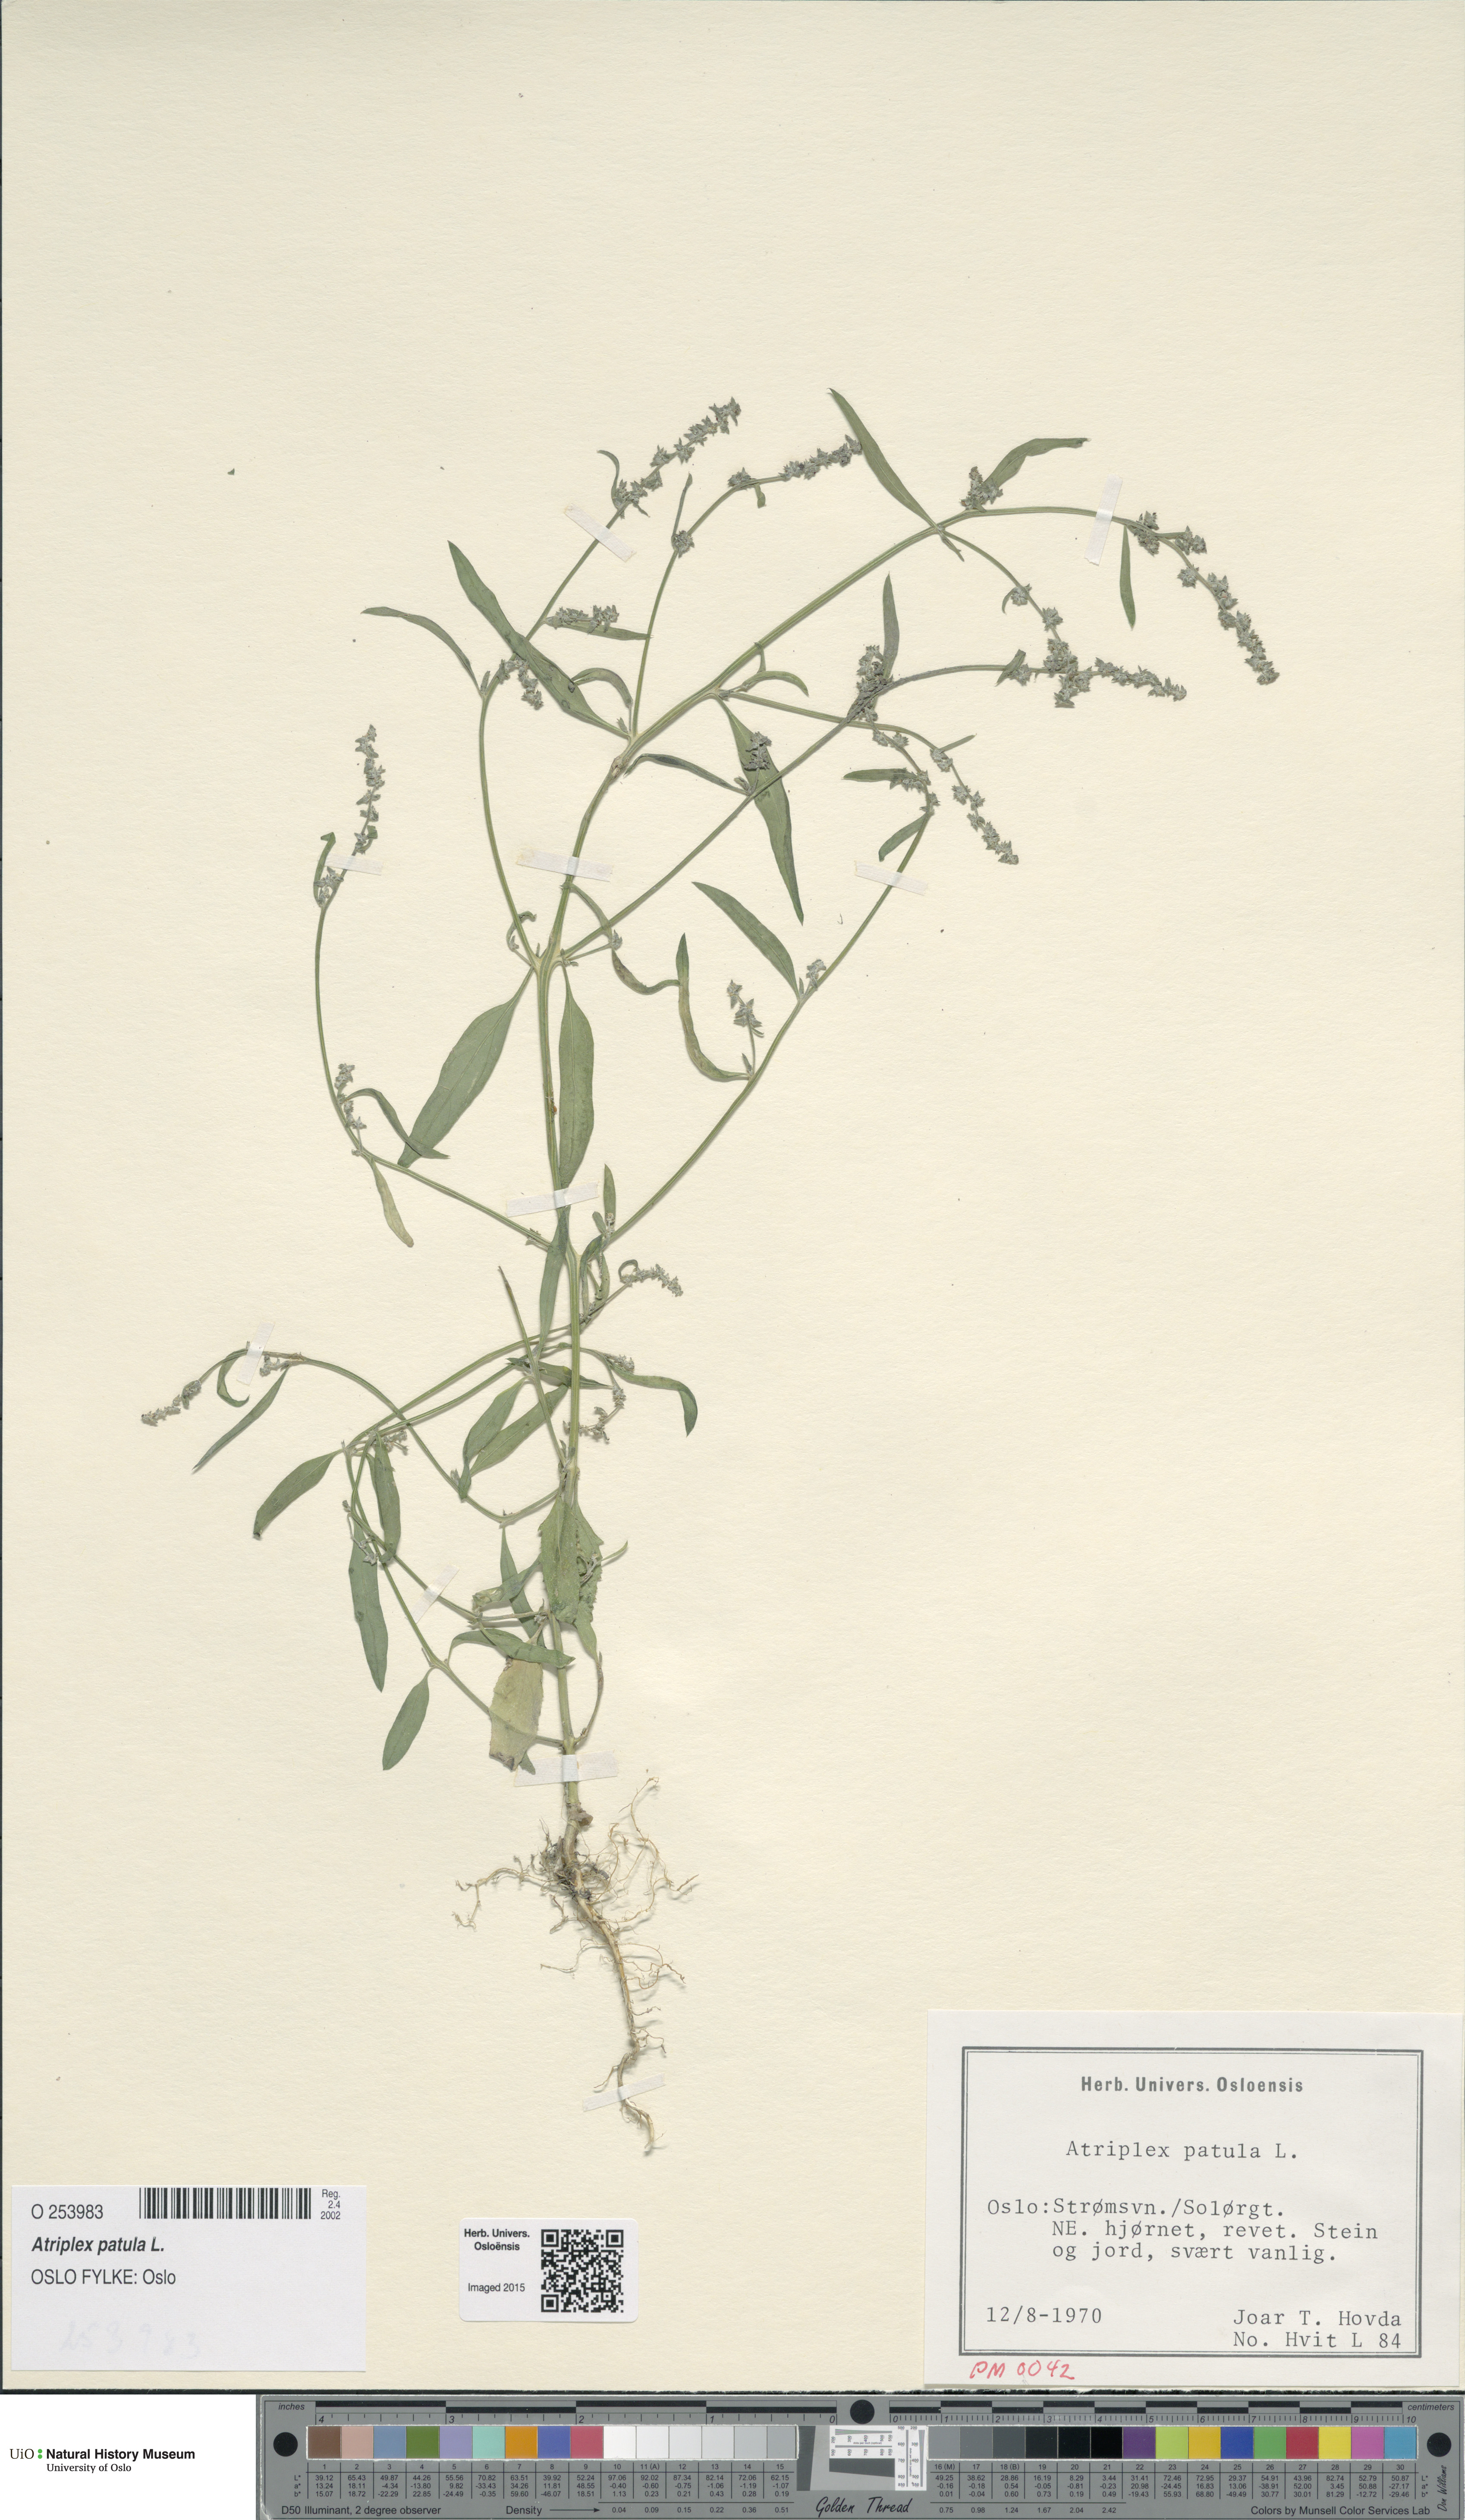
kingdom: Plantae
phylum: Tracheophyta
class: Magnoliopsida
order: Caryophyllales
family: Amaranthaceae
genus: Atriplex
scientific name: Atriplex patula
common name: Common orache
